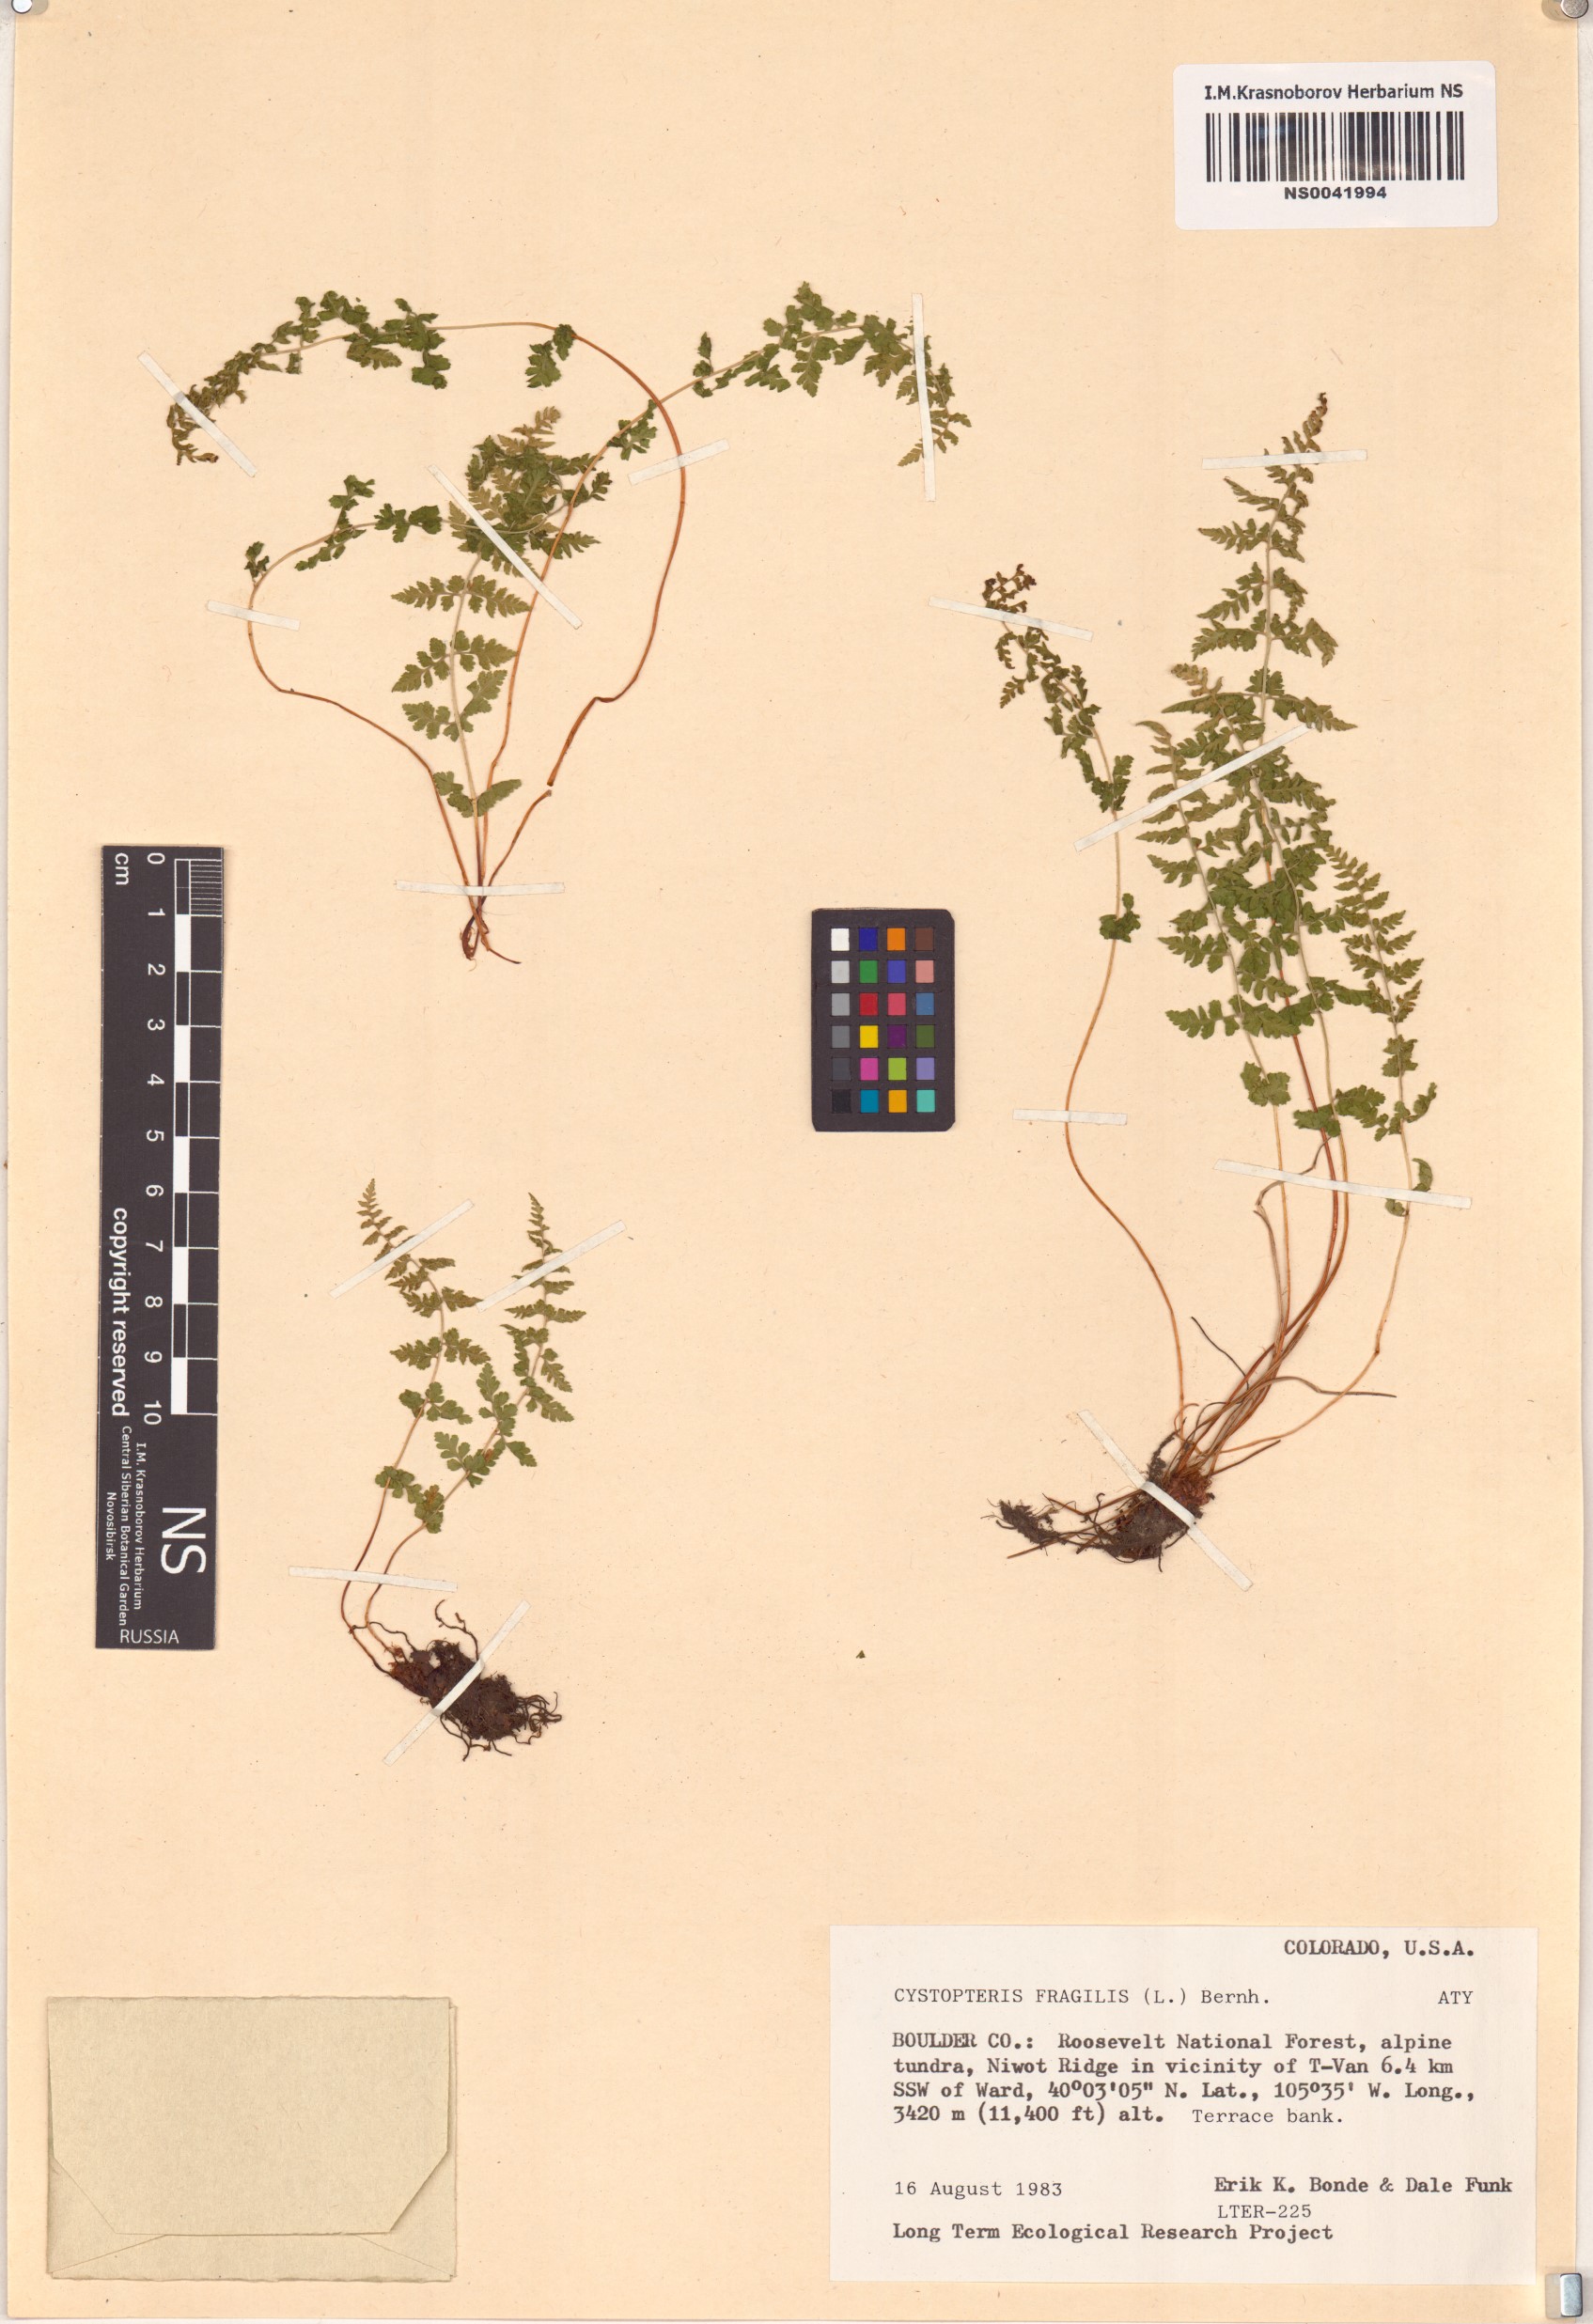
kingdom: Plantae
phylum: Tracheophyta
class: Polypodiopsida
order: Polypodiales
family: Cystopteridaceae
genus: Cystopteris
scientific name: Cystopteris fragilis
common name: Brittle bladder fern
